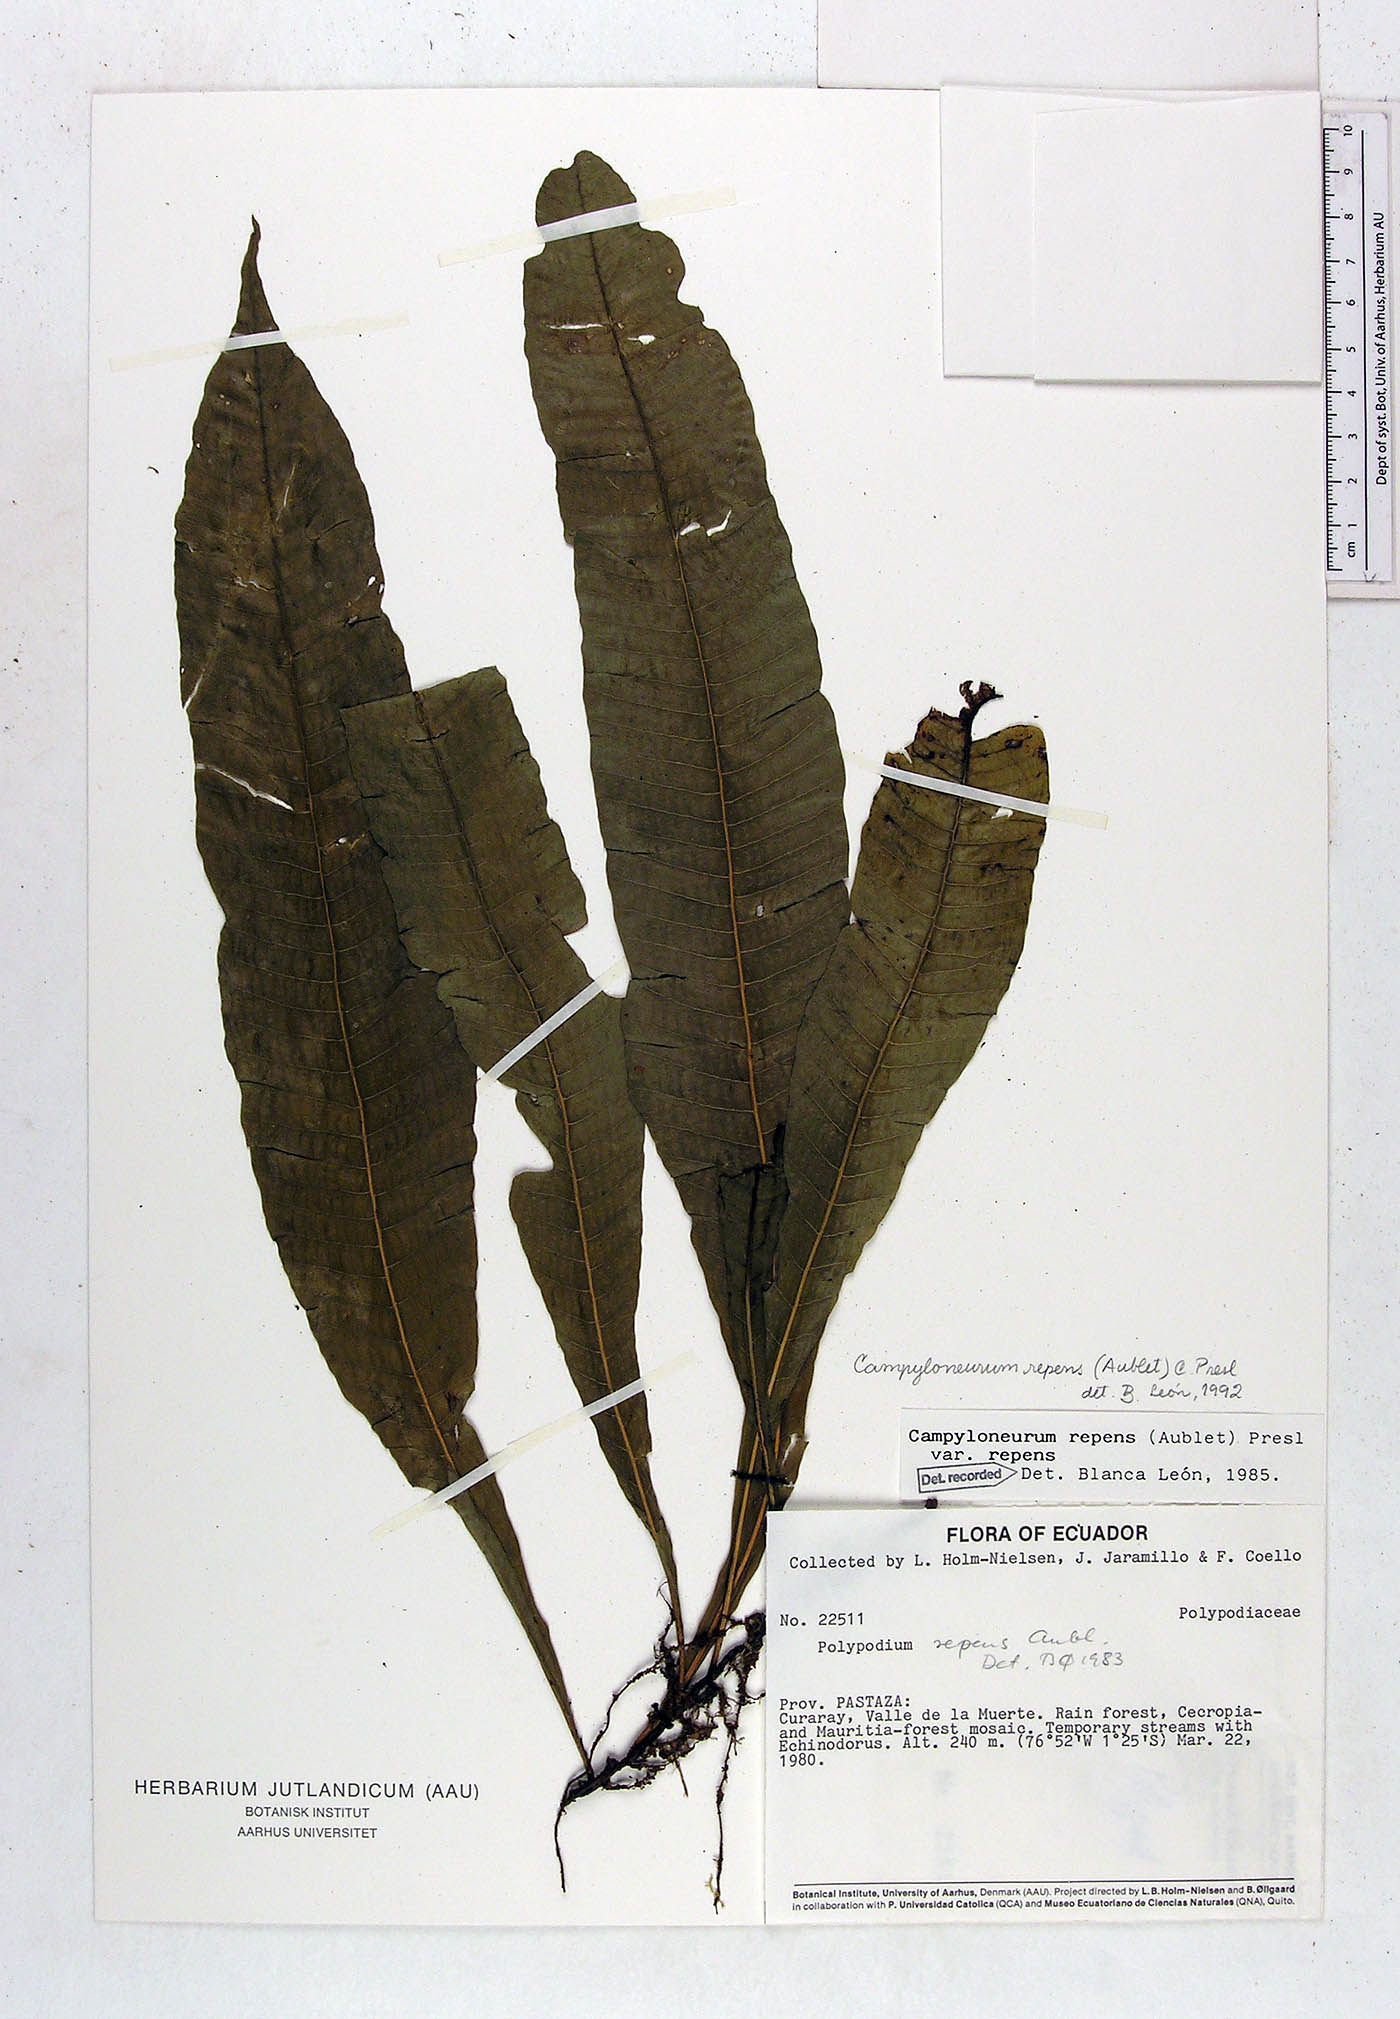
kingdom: Plantae
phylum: Tracheophyta
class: Polypodiopsida
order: Polypodiales
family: Polypodiaceae
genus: Campyloneurum
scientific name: Campyloneurum repens
